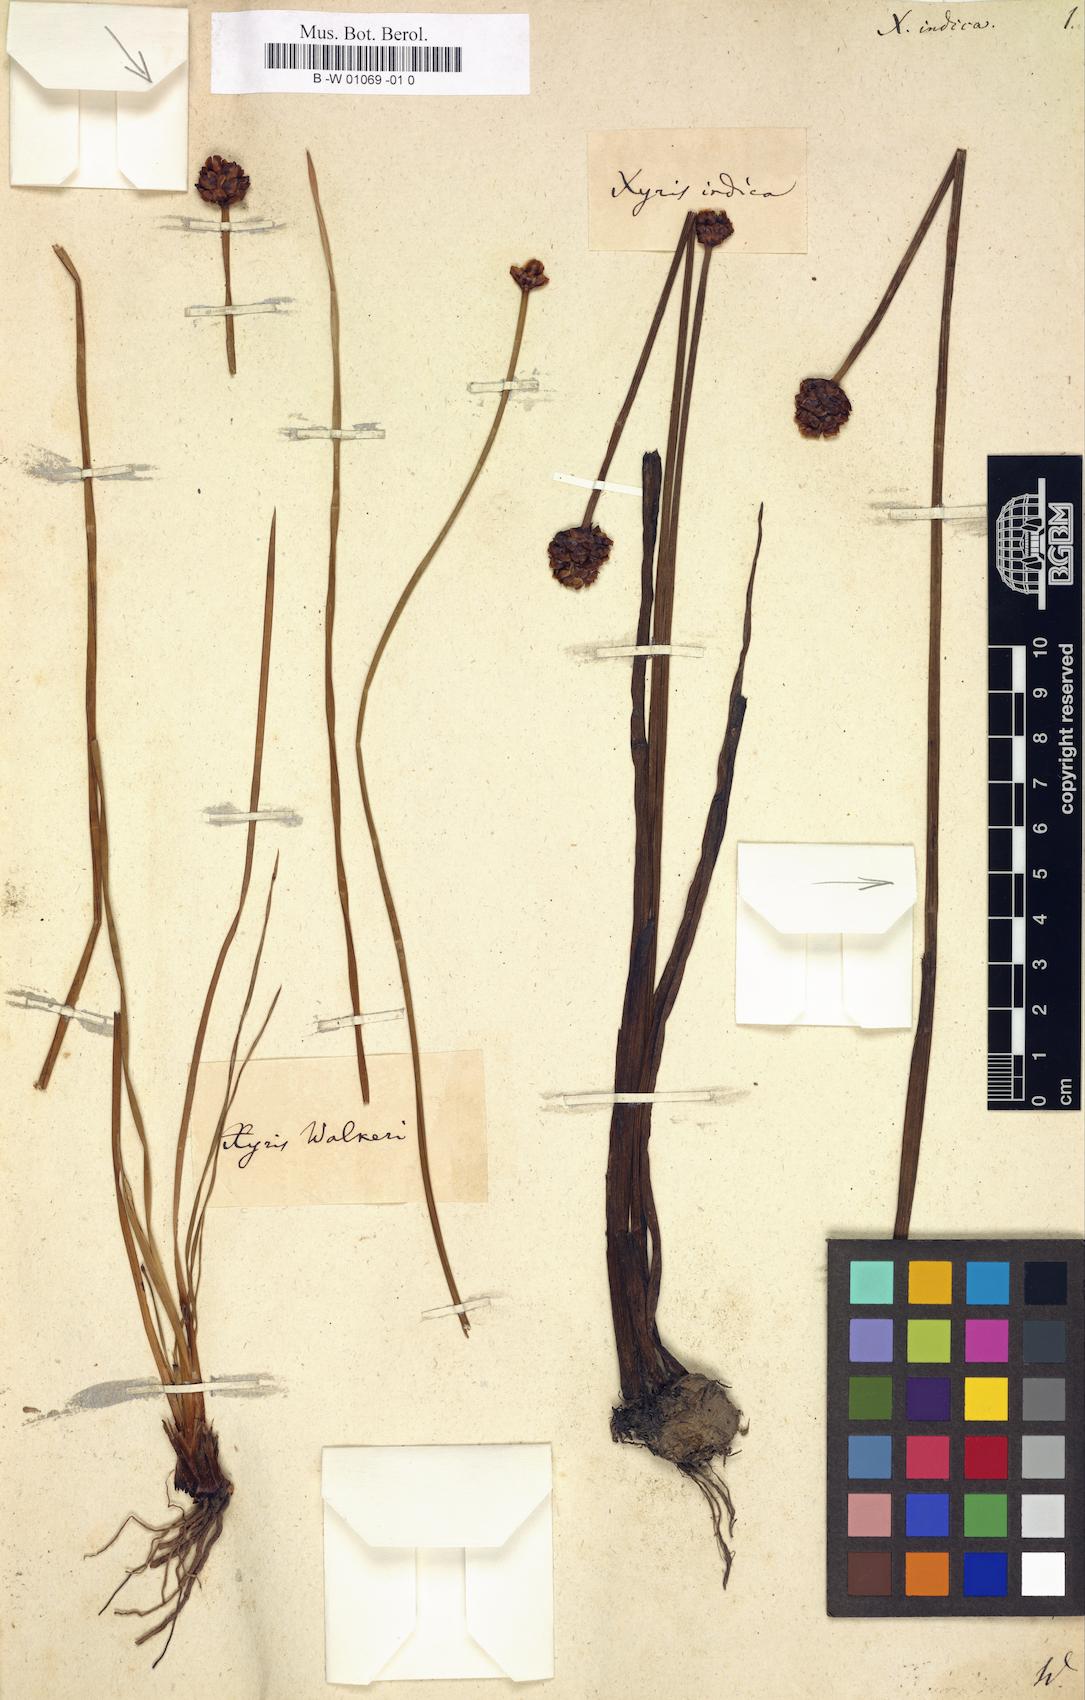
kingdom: Plantae
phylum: Tracheophyta
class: Liliopsida
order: Poales
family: Xyridaceae
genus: Xyris
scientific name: Xyris anceps
